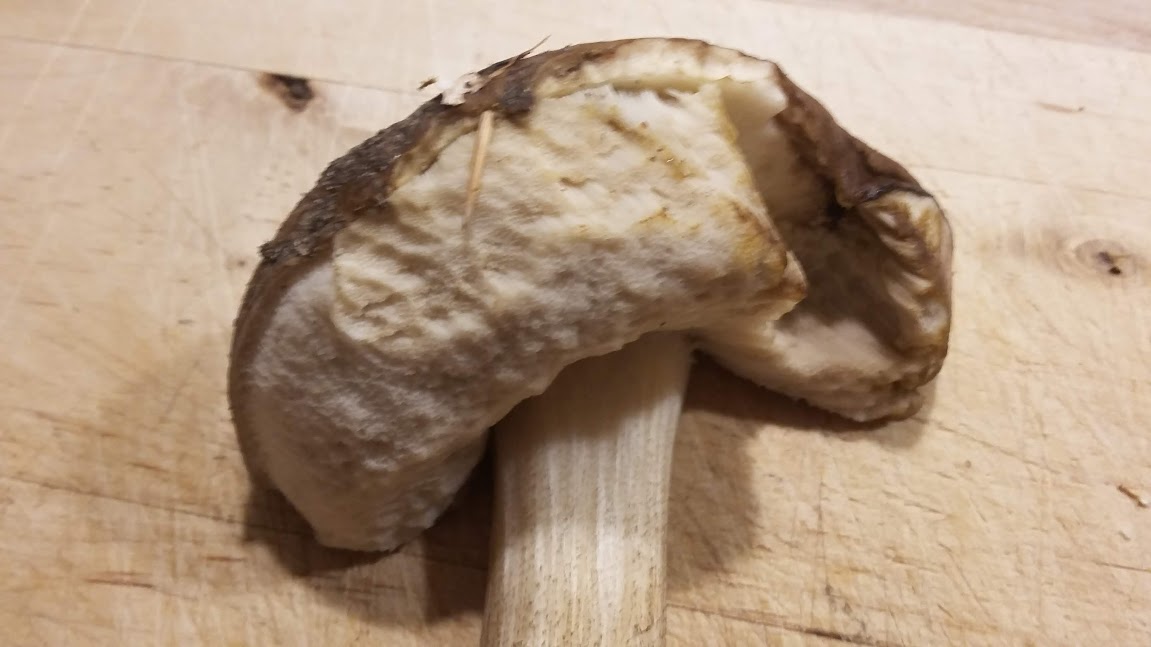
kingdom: Fungi
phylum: Basidiomycota
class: Agaricomycetes
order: Boletales
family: Boletaceae
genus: Leccinum
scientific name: Leccinum scabrum
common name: brun skælrørhat
